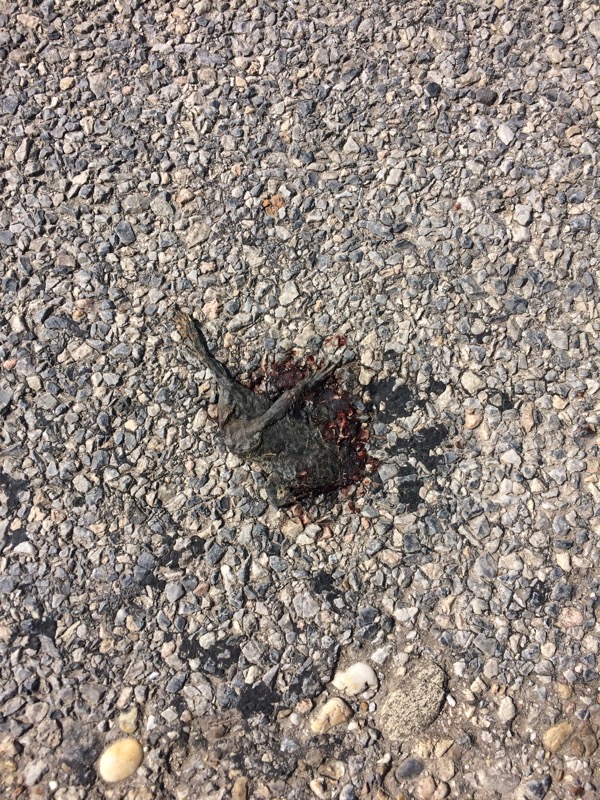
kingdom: Animalia
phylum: Chordata
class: Amphibia
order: Anura
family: Bufonidae
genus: Bufotes
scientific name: Bufotes viridis
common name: European green toad
